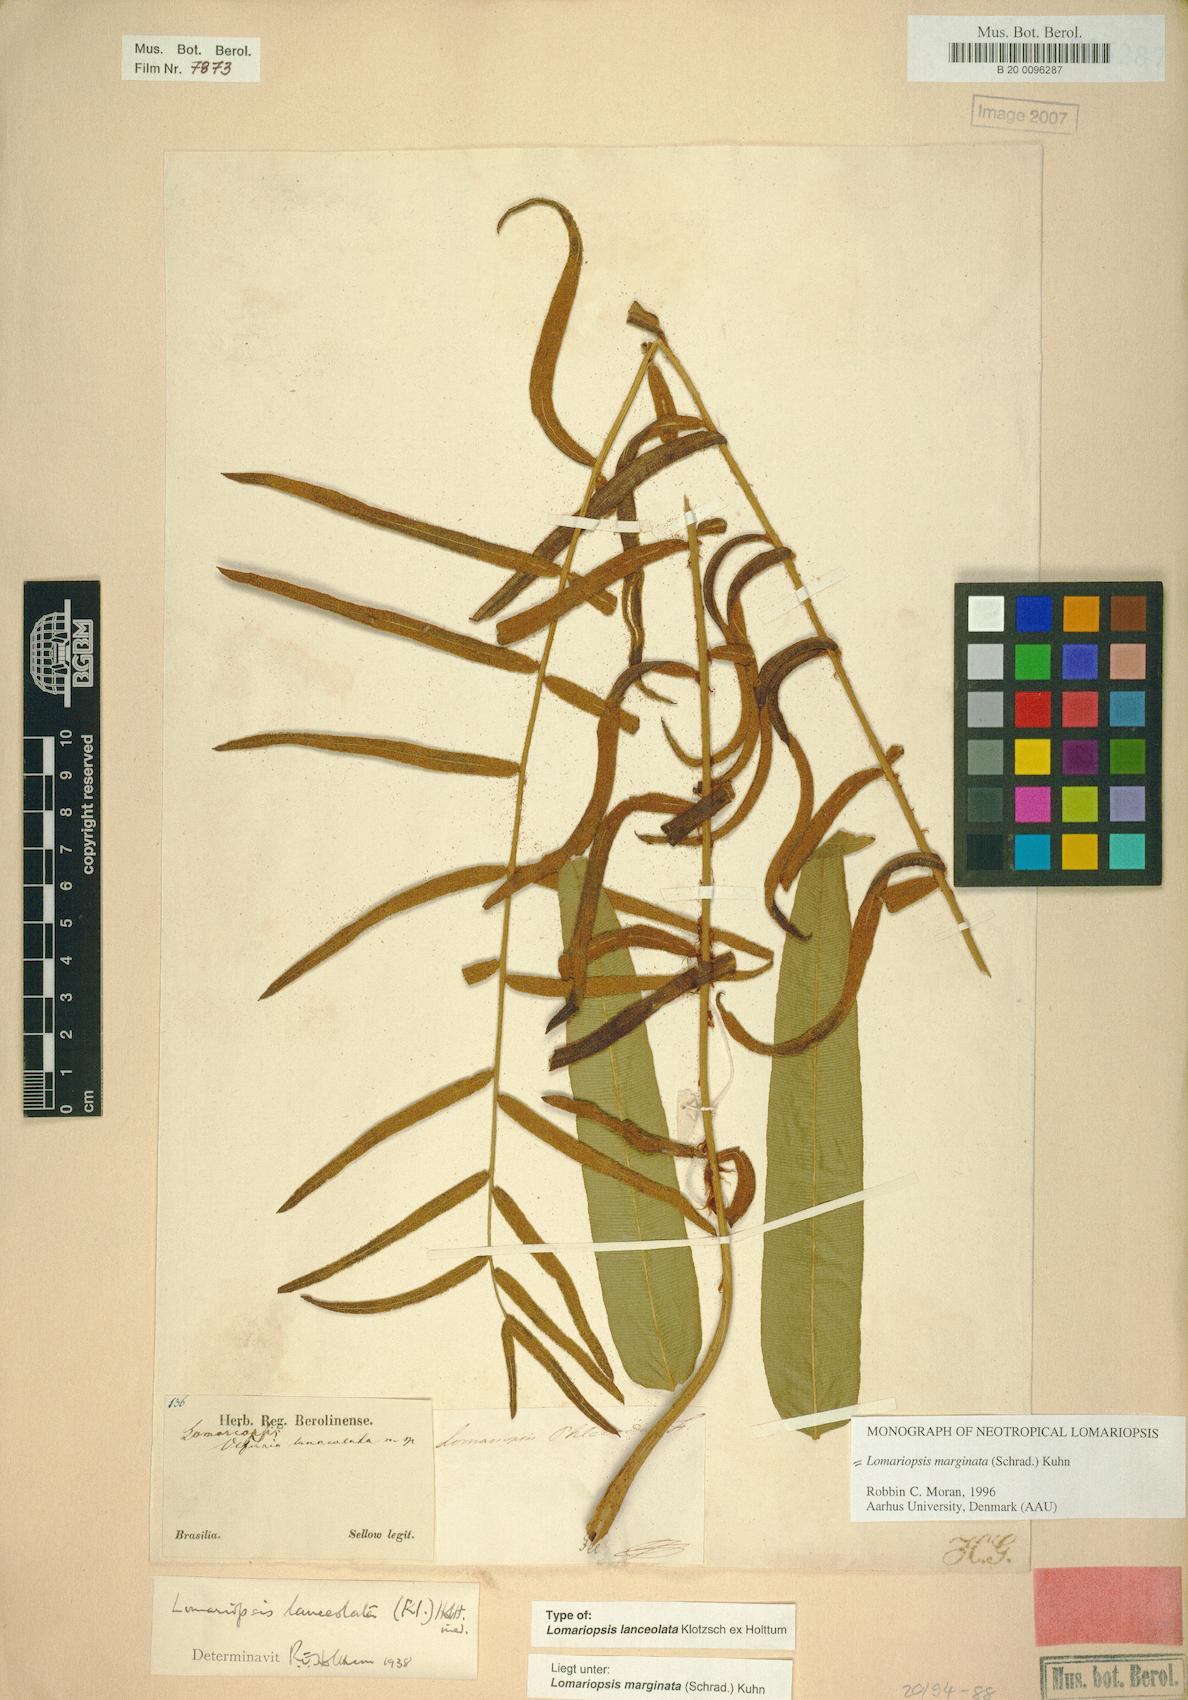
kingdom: Plantae
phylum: Tracheophyta
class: Polypodiopsida
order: Polypodiales
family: Lomariopsidaceae
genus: Lomariopsis
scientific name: Lomariopsis marginata
